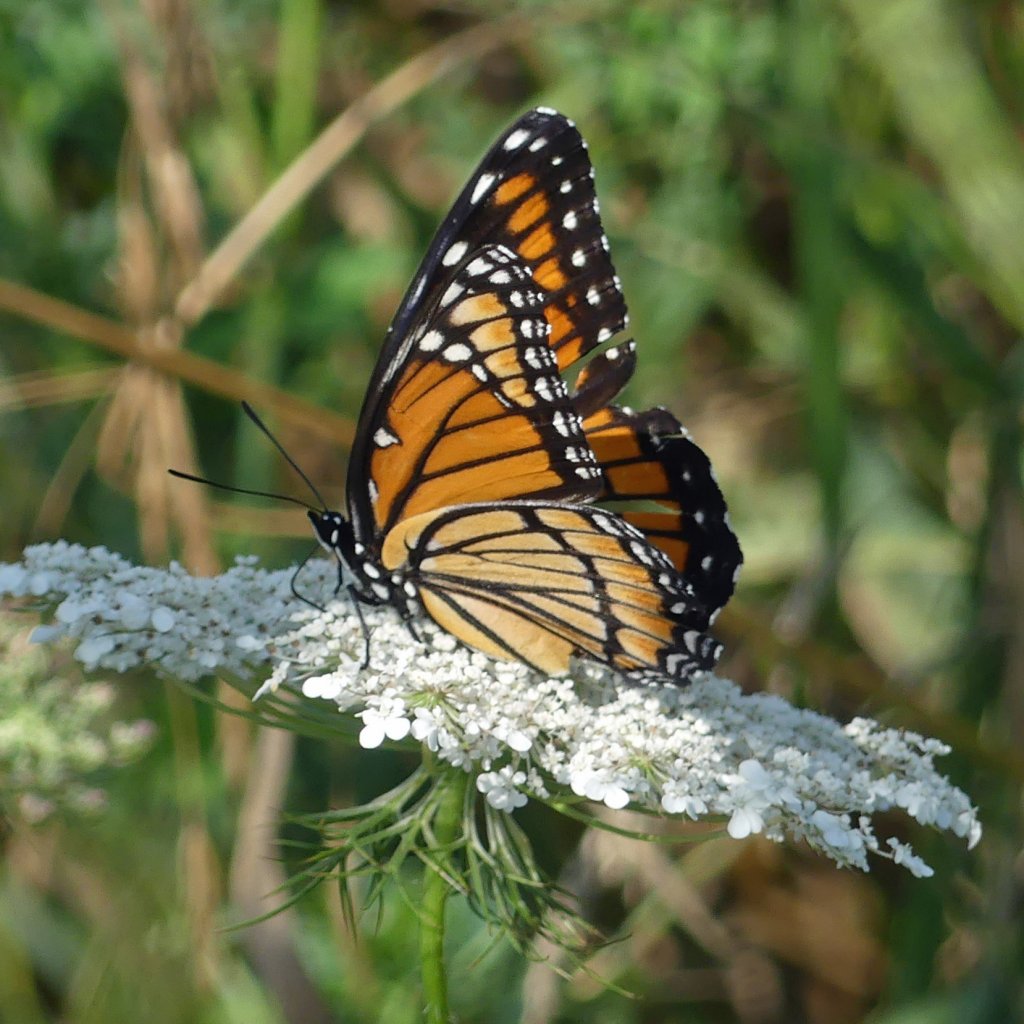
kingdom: Animalia
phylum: Arthropoda
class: Insecta
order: Lepidoptera
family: Nymphalidae
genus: Limenitis
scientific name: Limenitis archippus
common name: Viceroy
